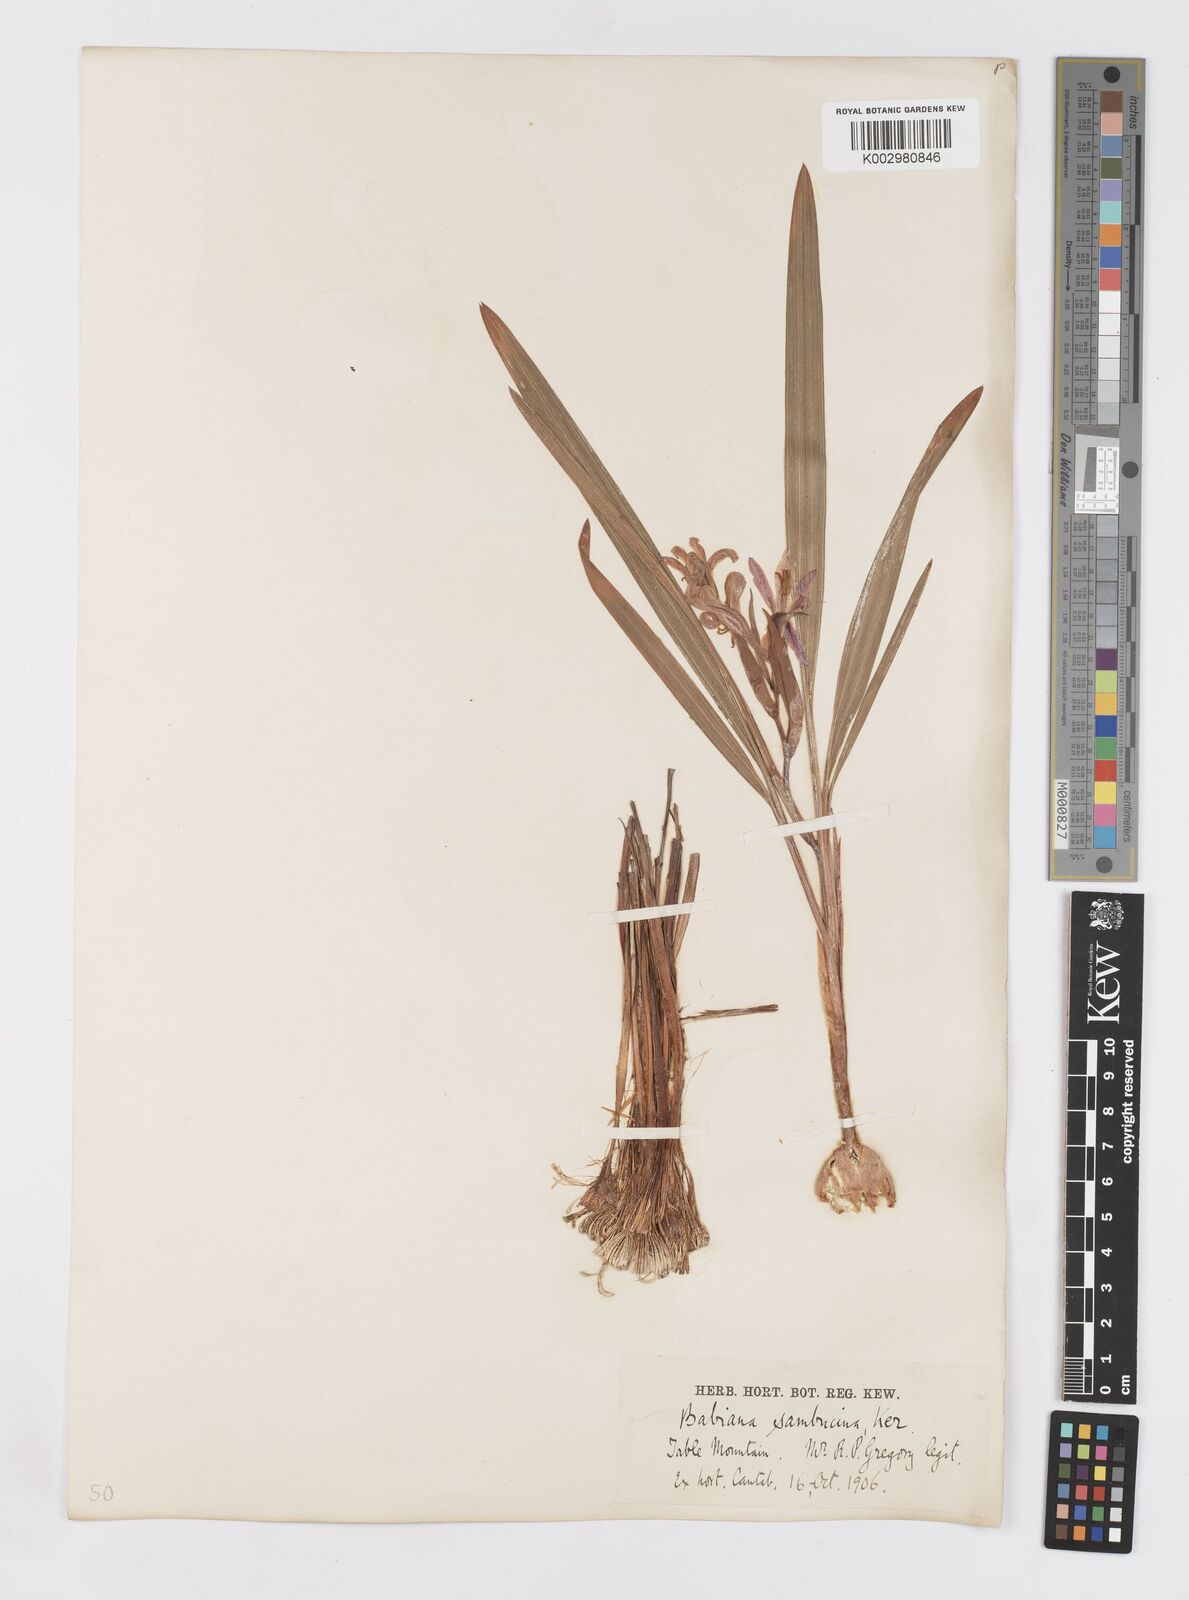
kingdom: Plantae
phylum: Tracheophyta
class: Liliopsida
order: Asparagales
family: Iridaceae
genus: Babiana
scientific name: Babiana sambucina
